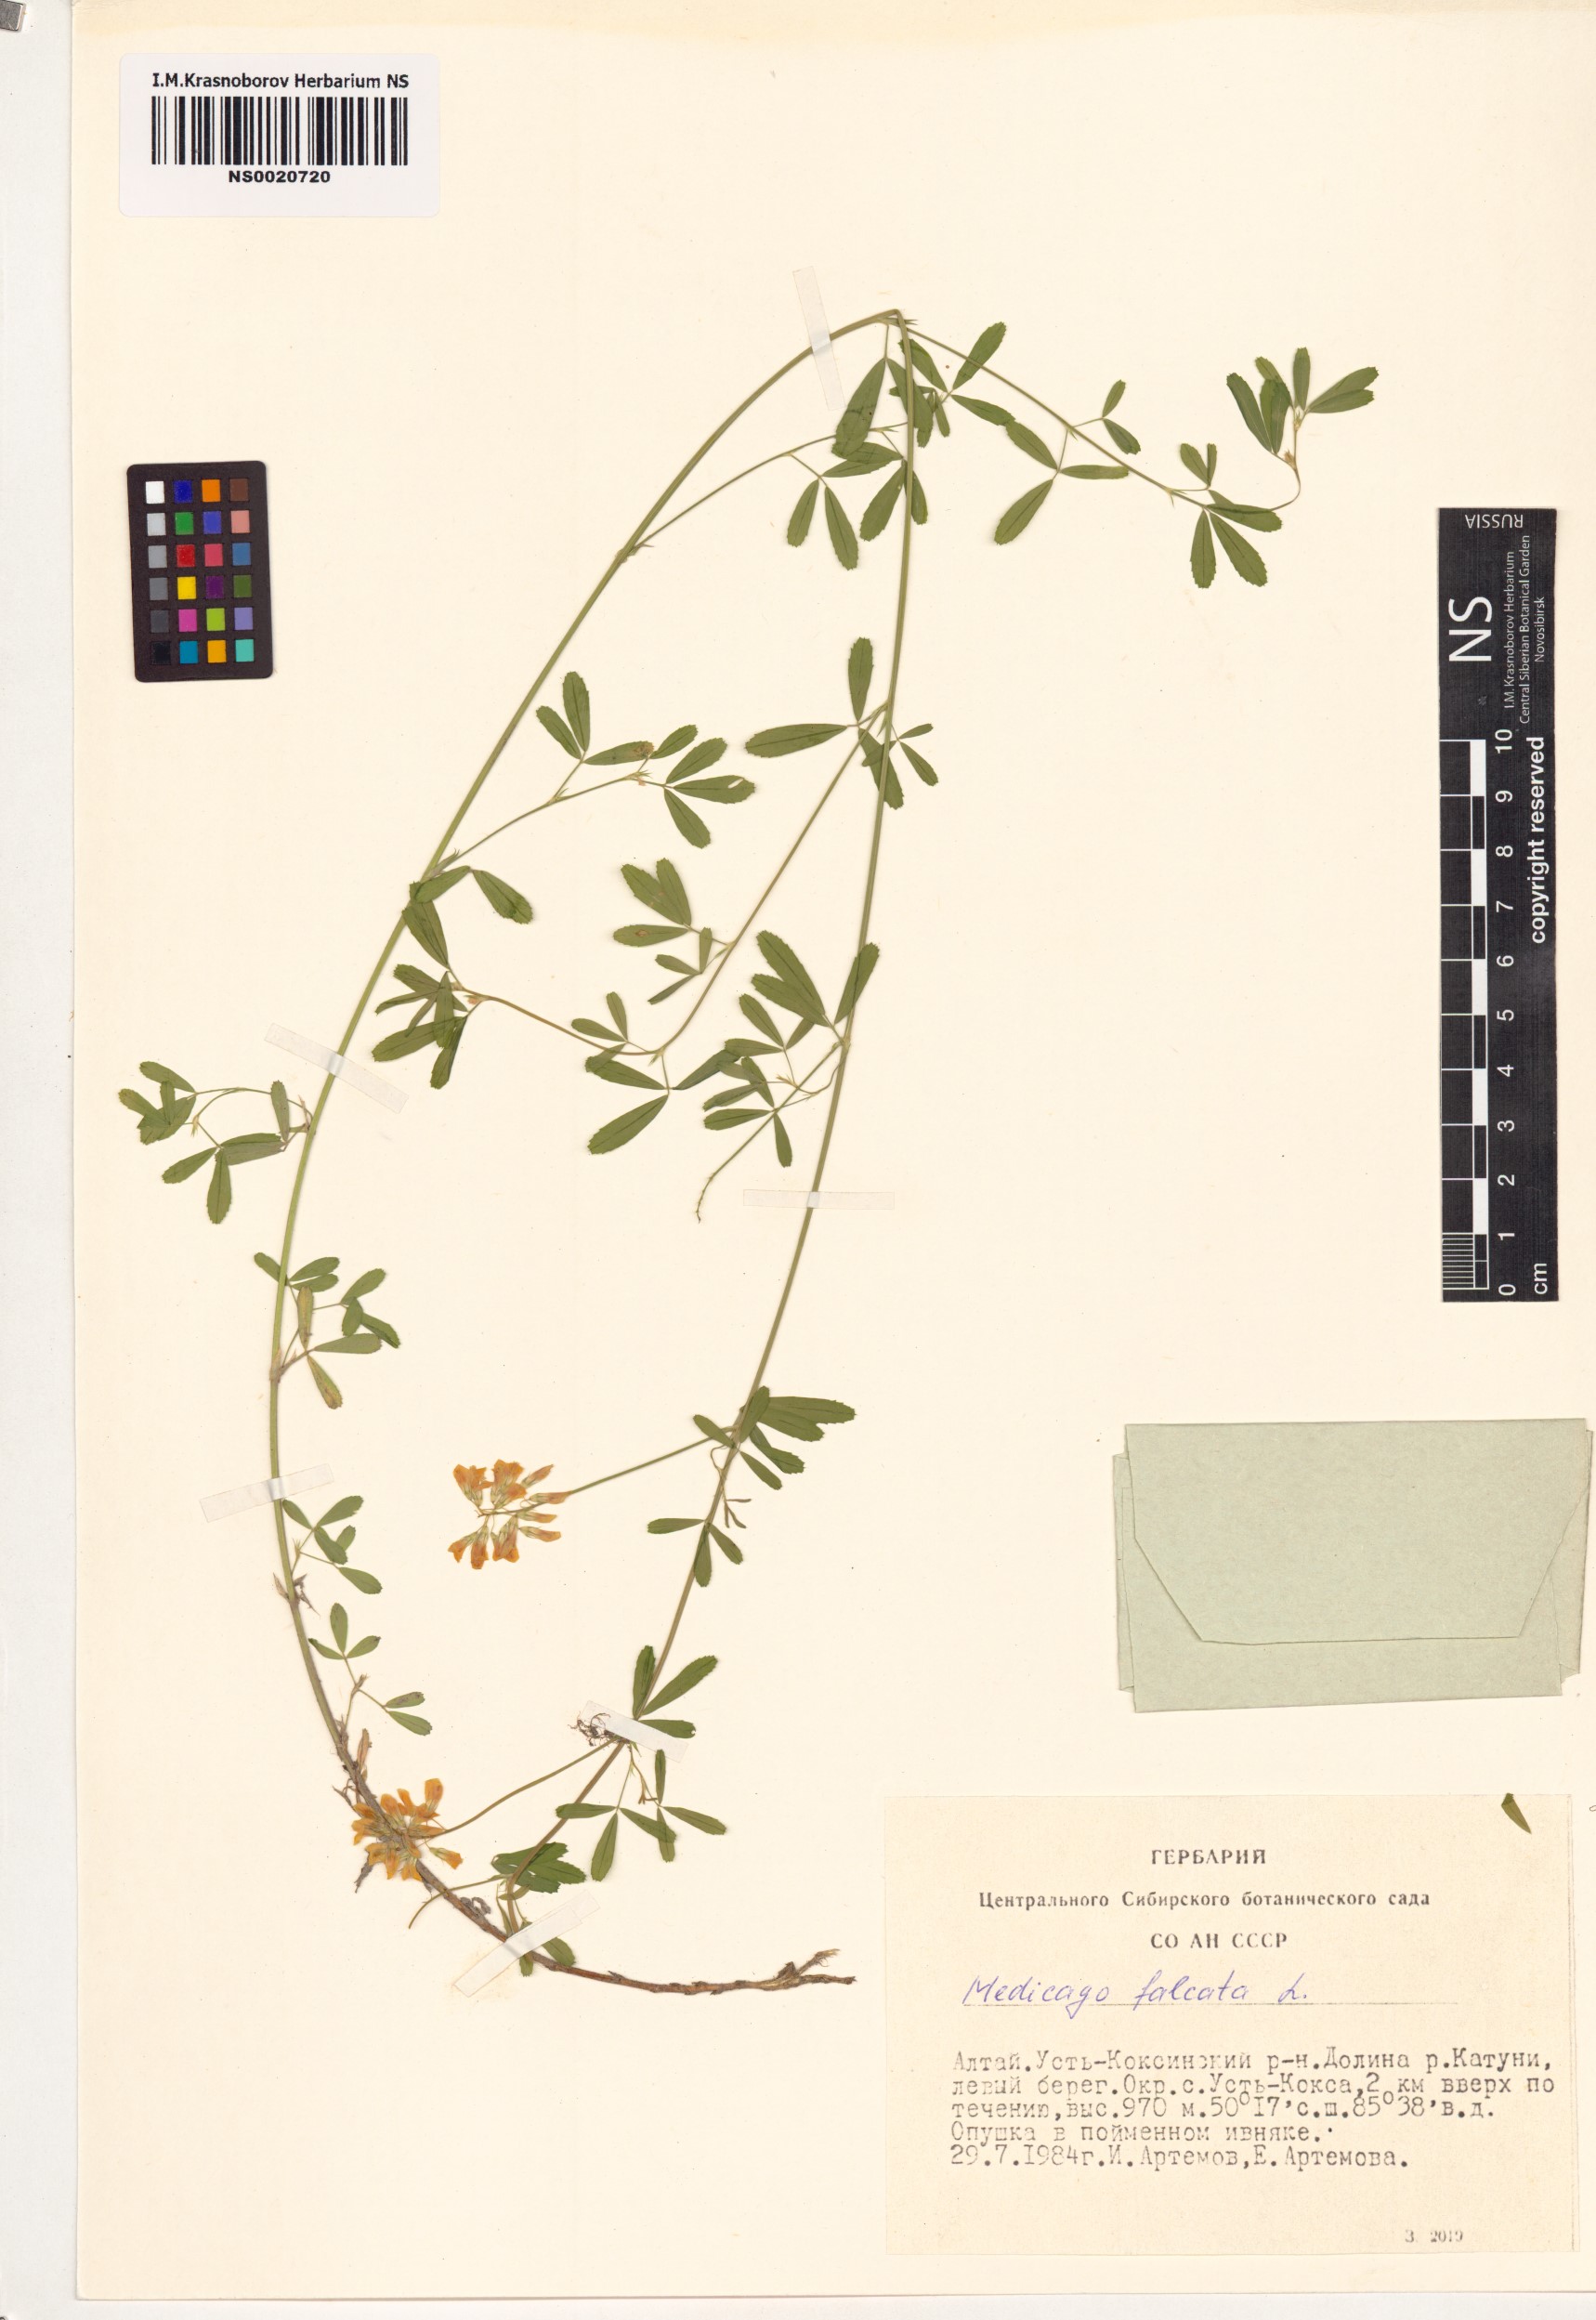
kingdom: Plantae
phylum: Tracheophyta
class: Magnoliopsida
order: Fabales
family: Fabaceae
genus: Medicago
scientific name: Medicago falcata
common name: Sickle medick
